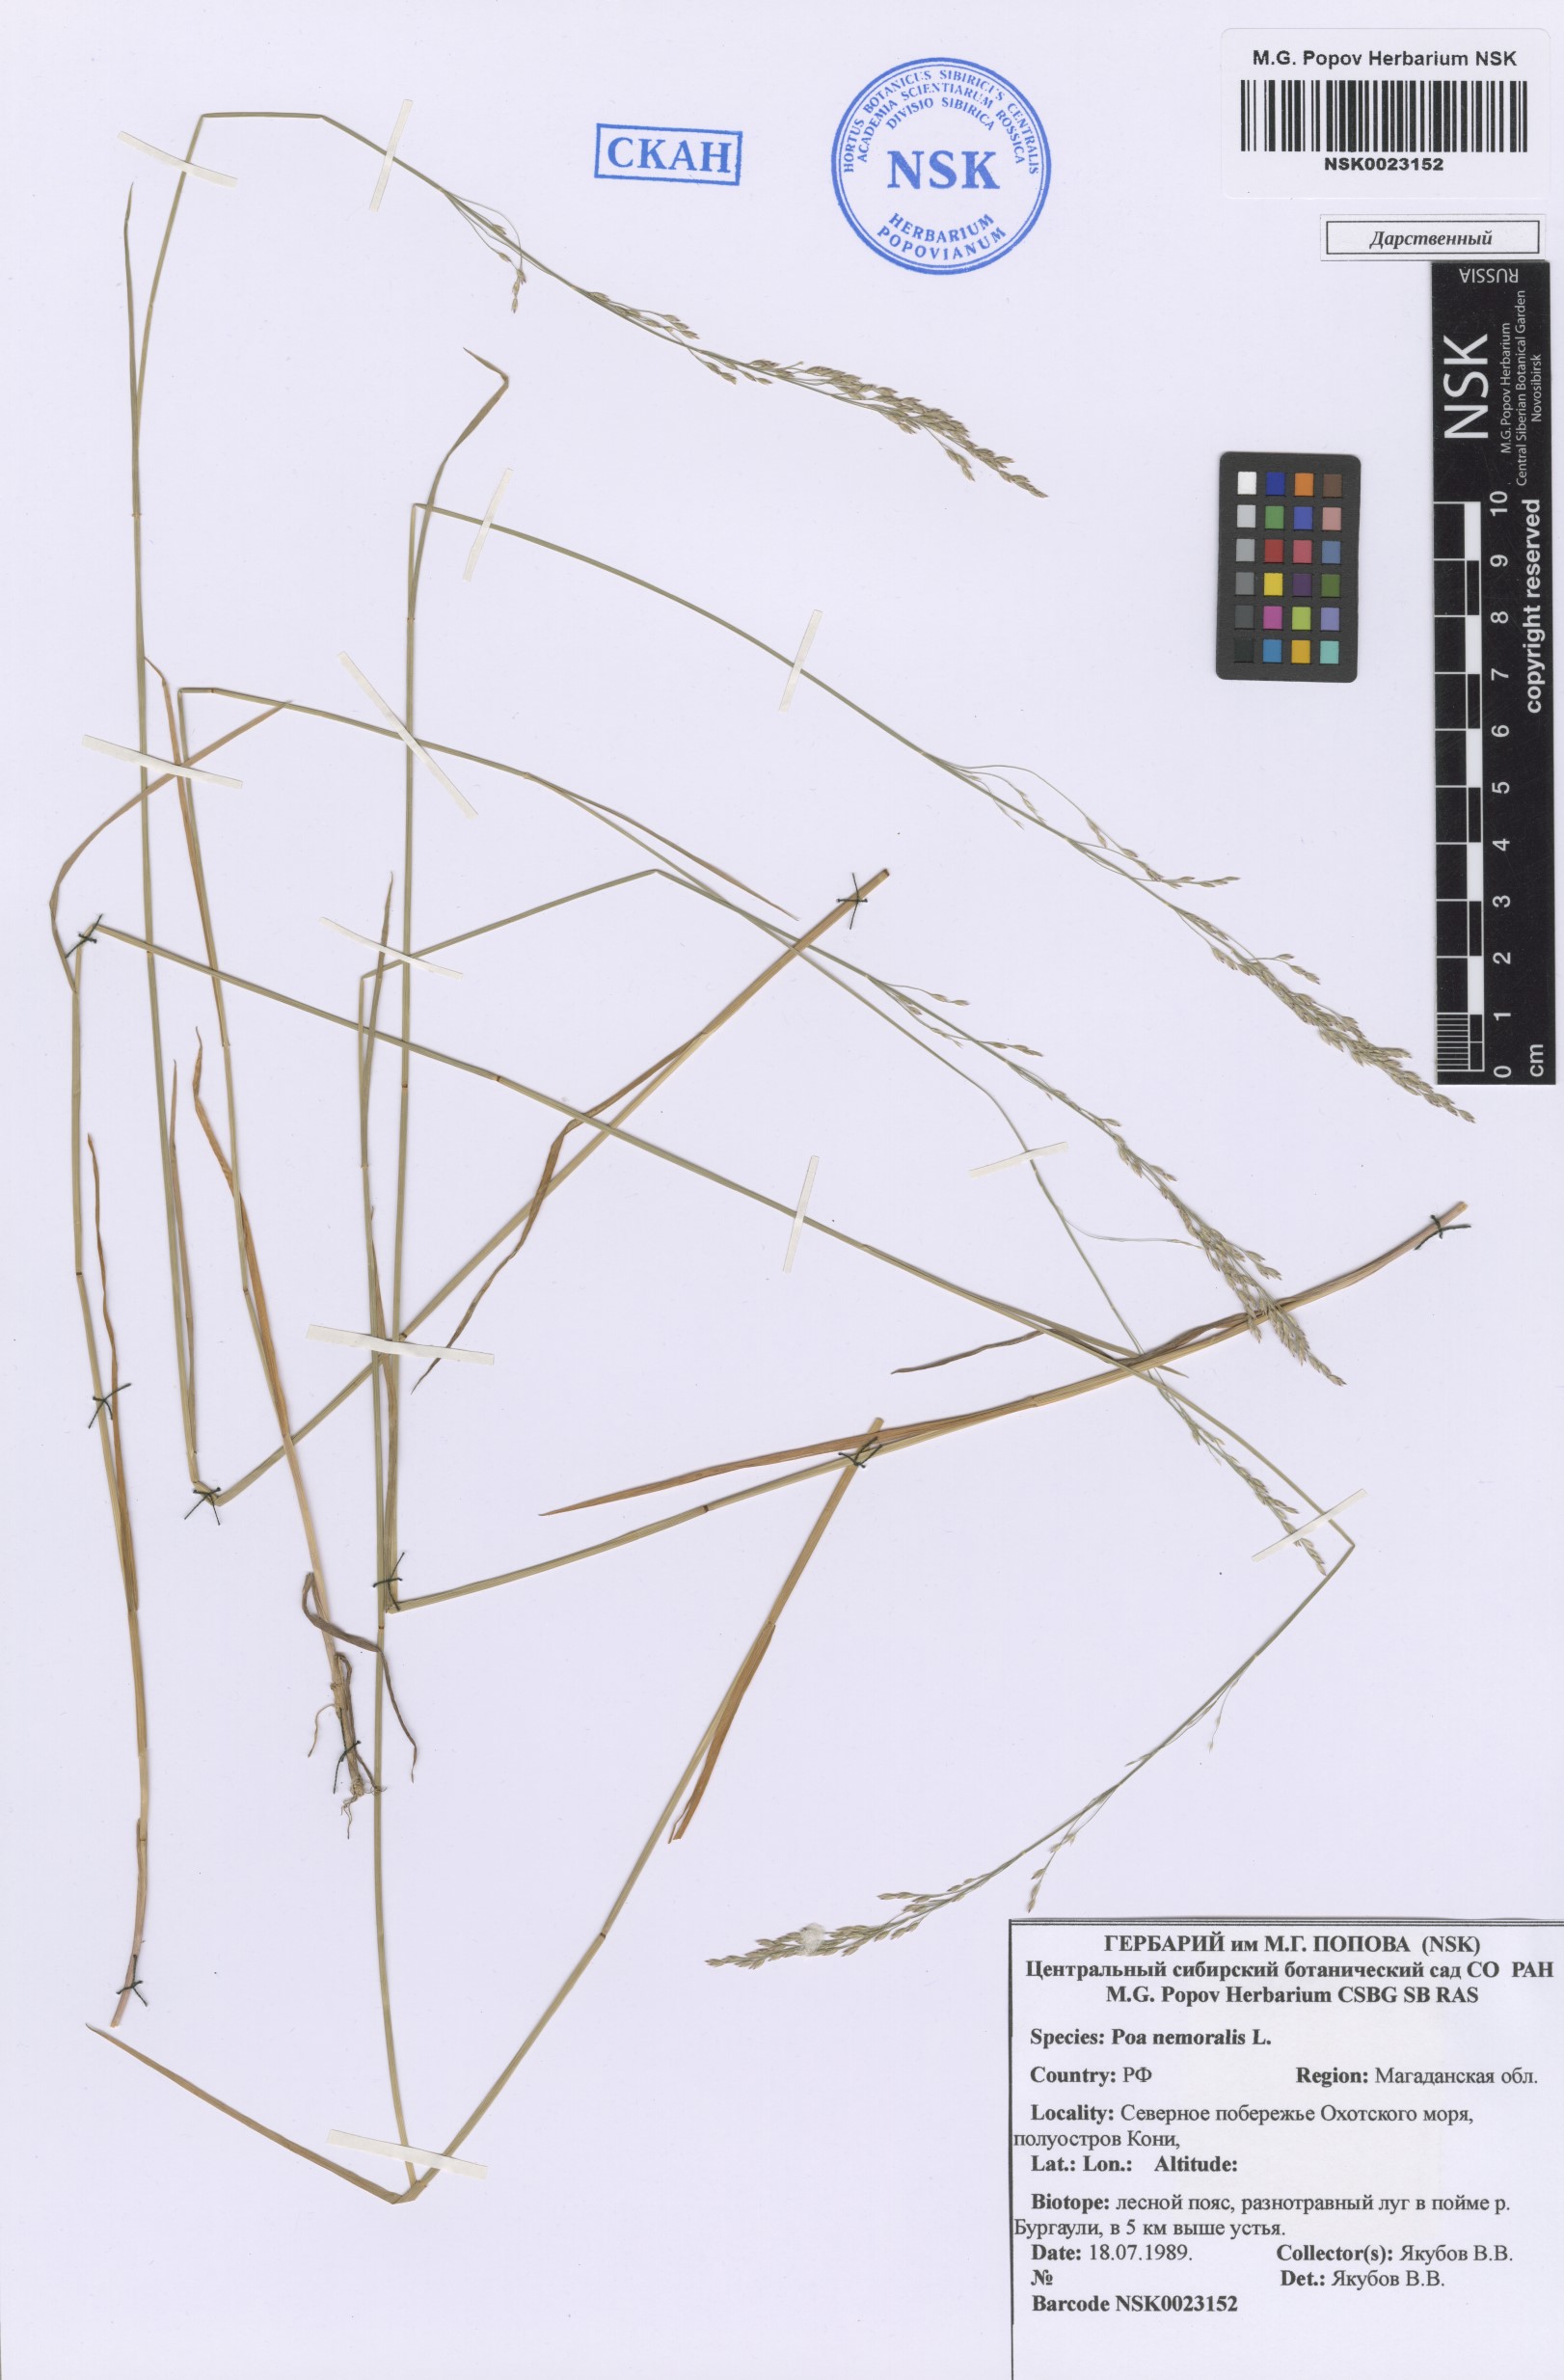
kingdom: Plantae
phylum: Tracheophyta
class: Liliopsida
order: Poales
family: Poaceae
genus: Poa
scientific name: Poa nemoralis
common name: Wood bluegrass
